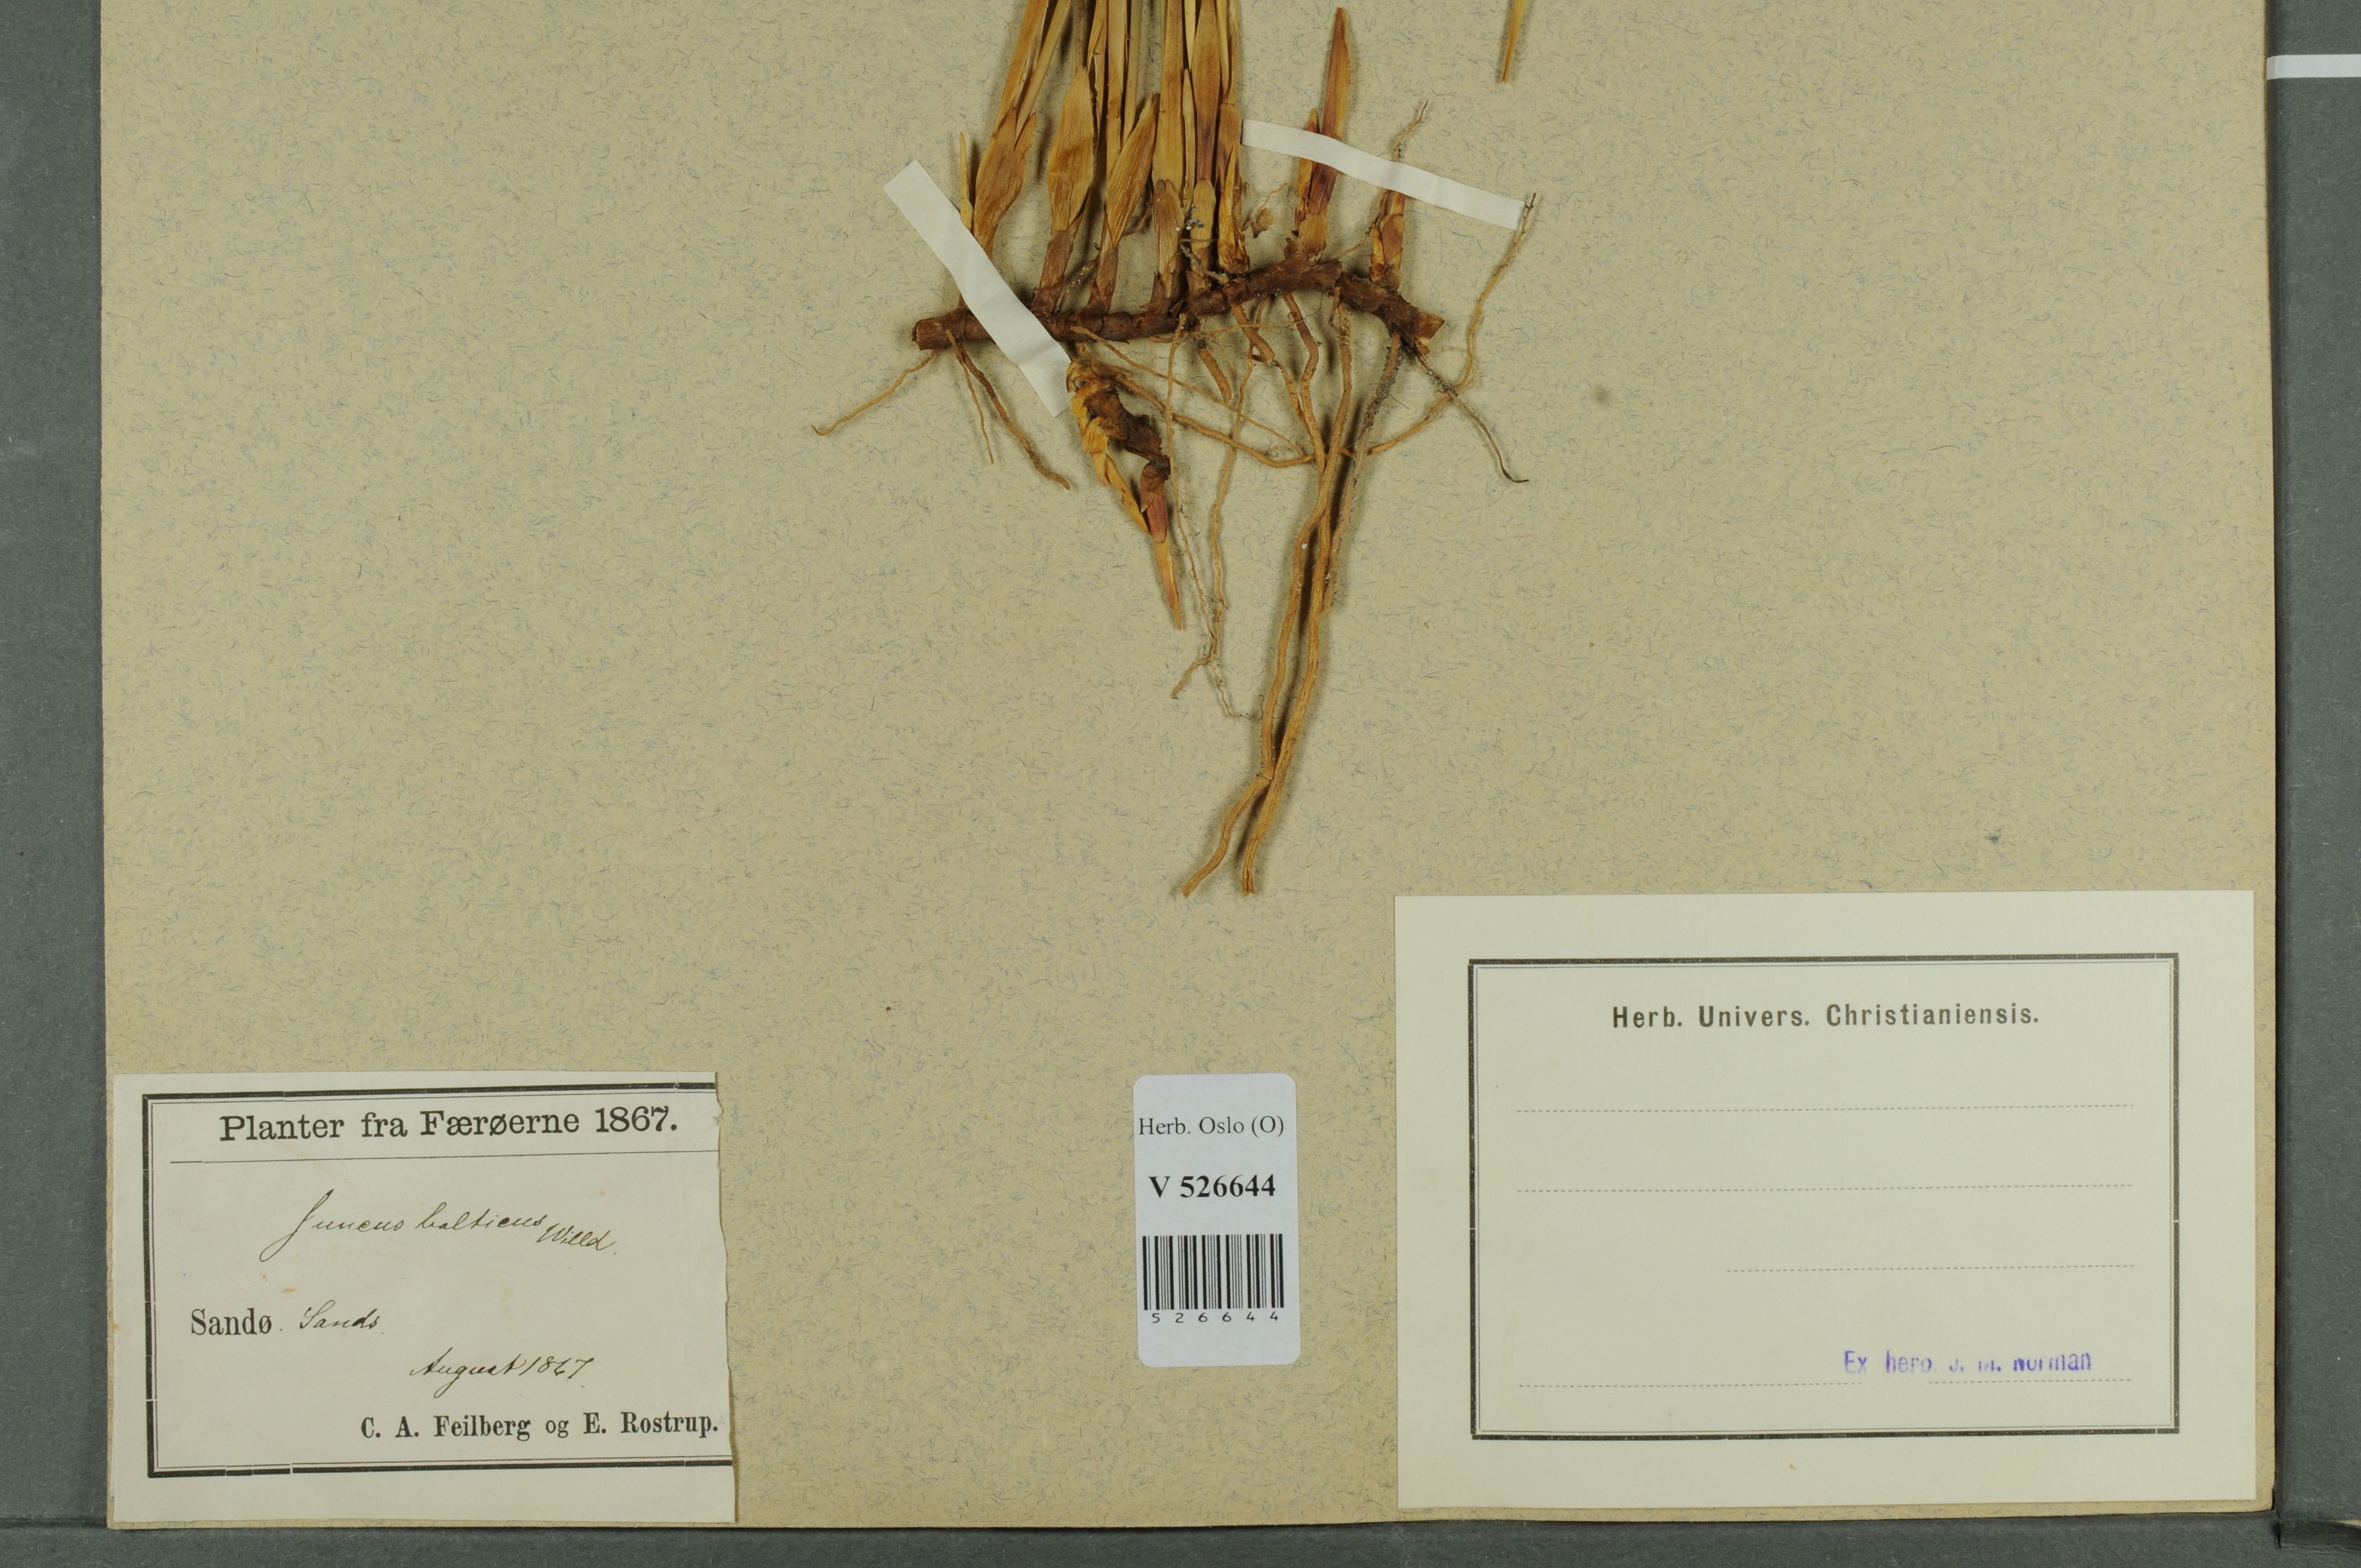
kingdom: Plantae
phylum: Tracheophyta
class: Liliopsida
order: Poales
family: Juncaceae
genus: Juncus
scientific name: Juncus balticus
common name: Baltic rush
